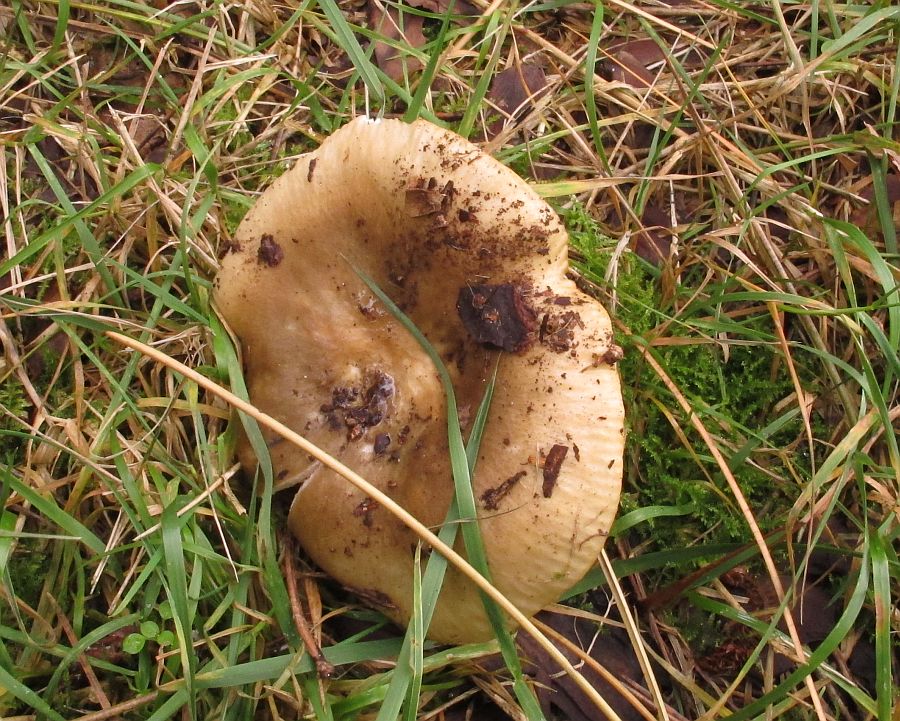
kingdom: Fungi
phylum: Basidiomycota
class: Agaricomycetes
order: Russulales
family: Russulaceae
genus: Russula
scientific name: Russula ochroleuca
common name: okkergul skørhat
